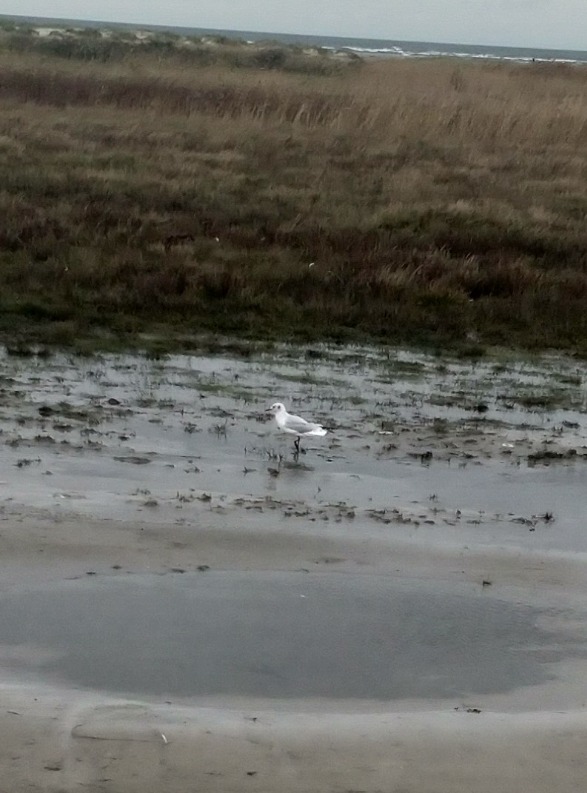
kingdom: Animalia
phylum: Chordata
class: Aves
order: Charadriiformes
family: Laridae
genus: Chroicocephalus
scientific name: Chroicocephalus ridibundus
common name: Hættemåge
